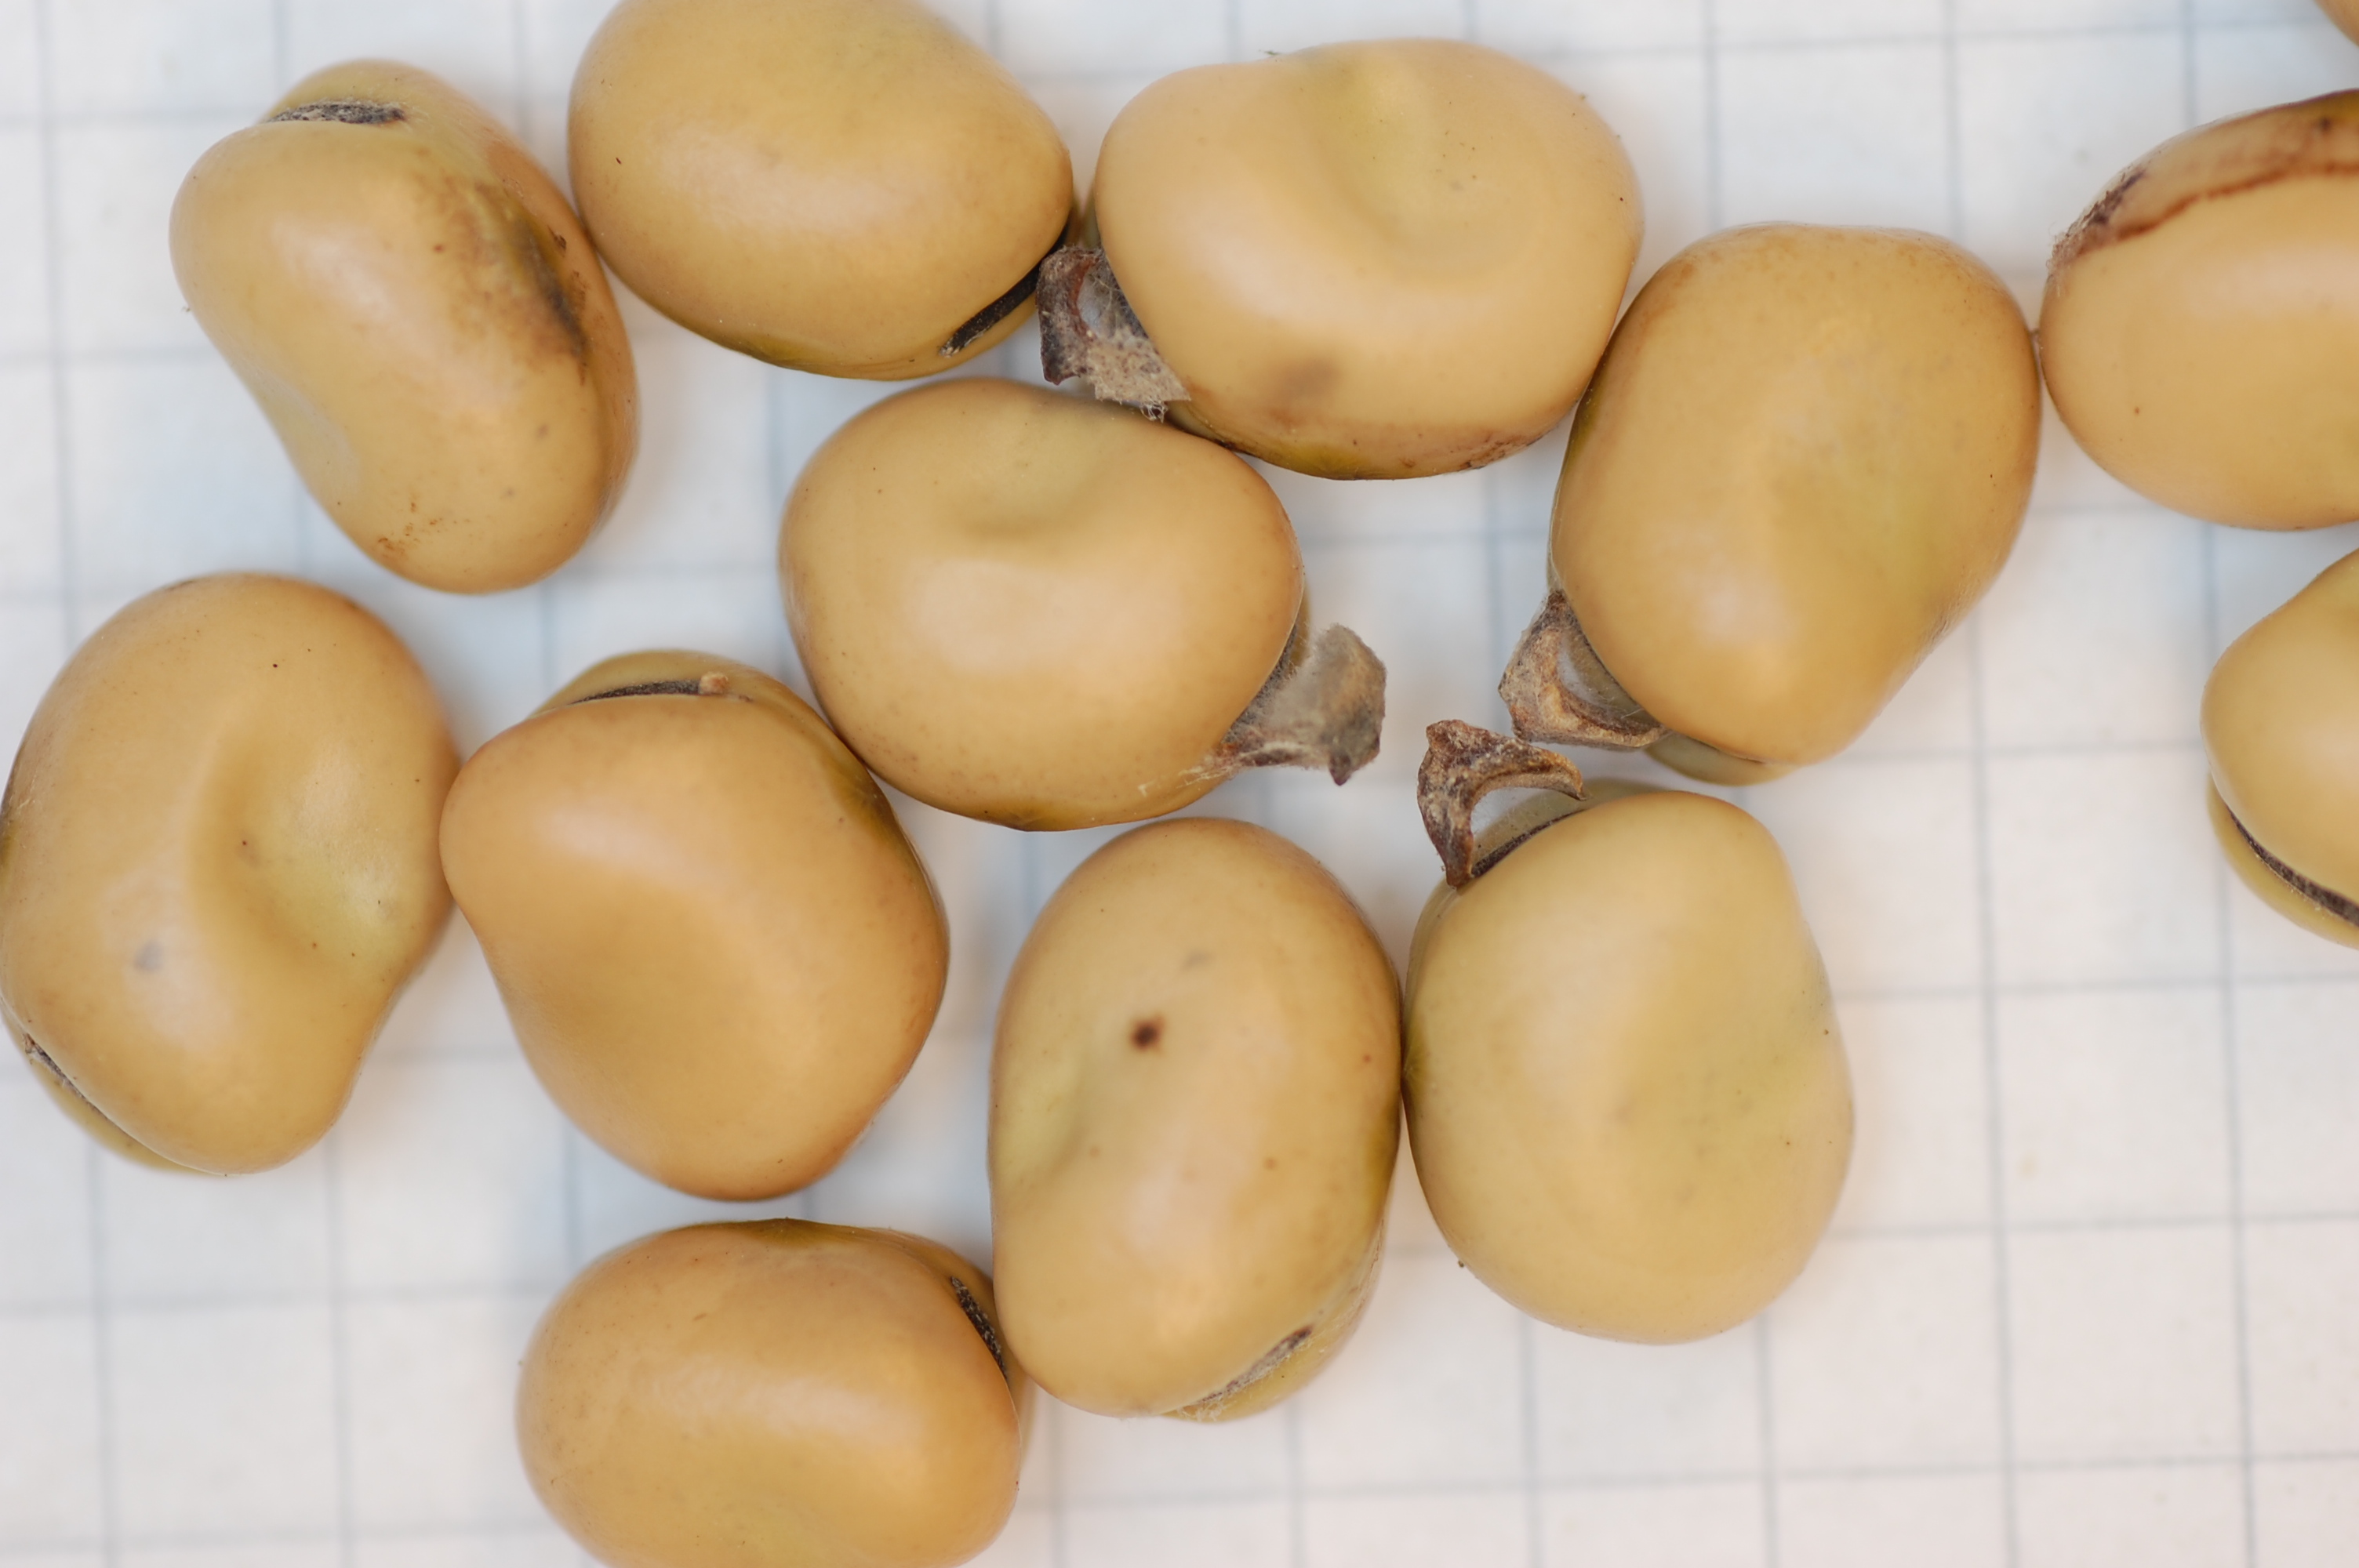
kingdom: Plantae
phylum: Tracheophyta
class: Magnoliopsida
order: Fabales
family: Fabaceae
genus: Vicia
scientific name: Vicia faba
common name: Broad bean
